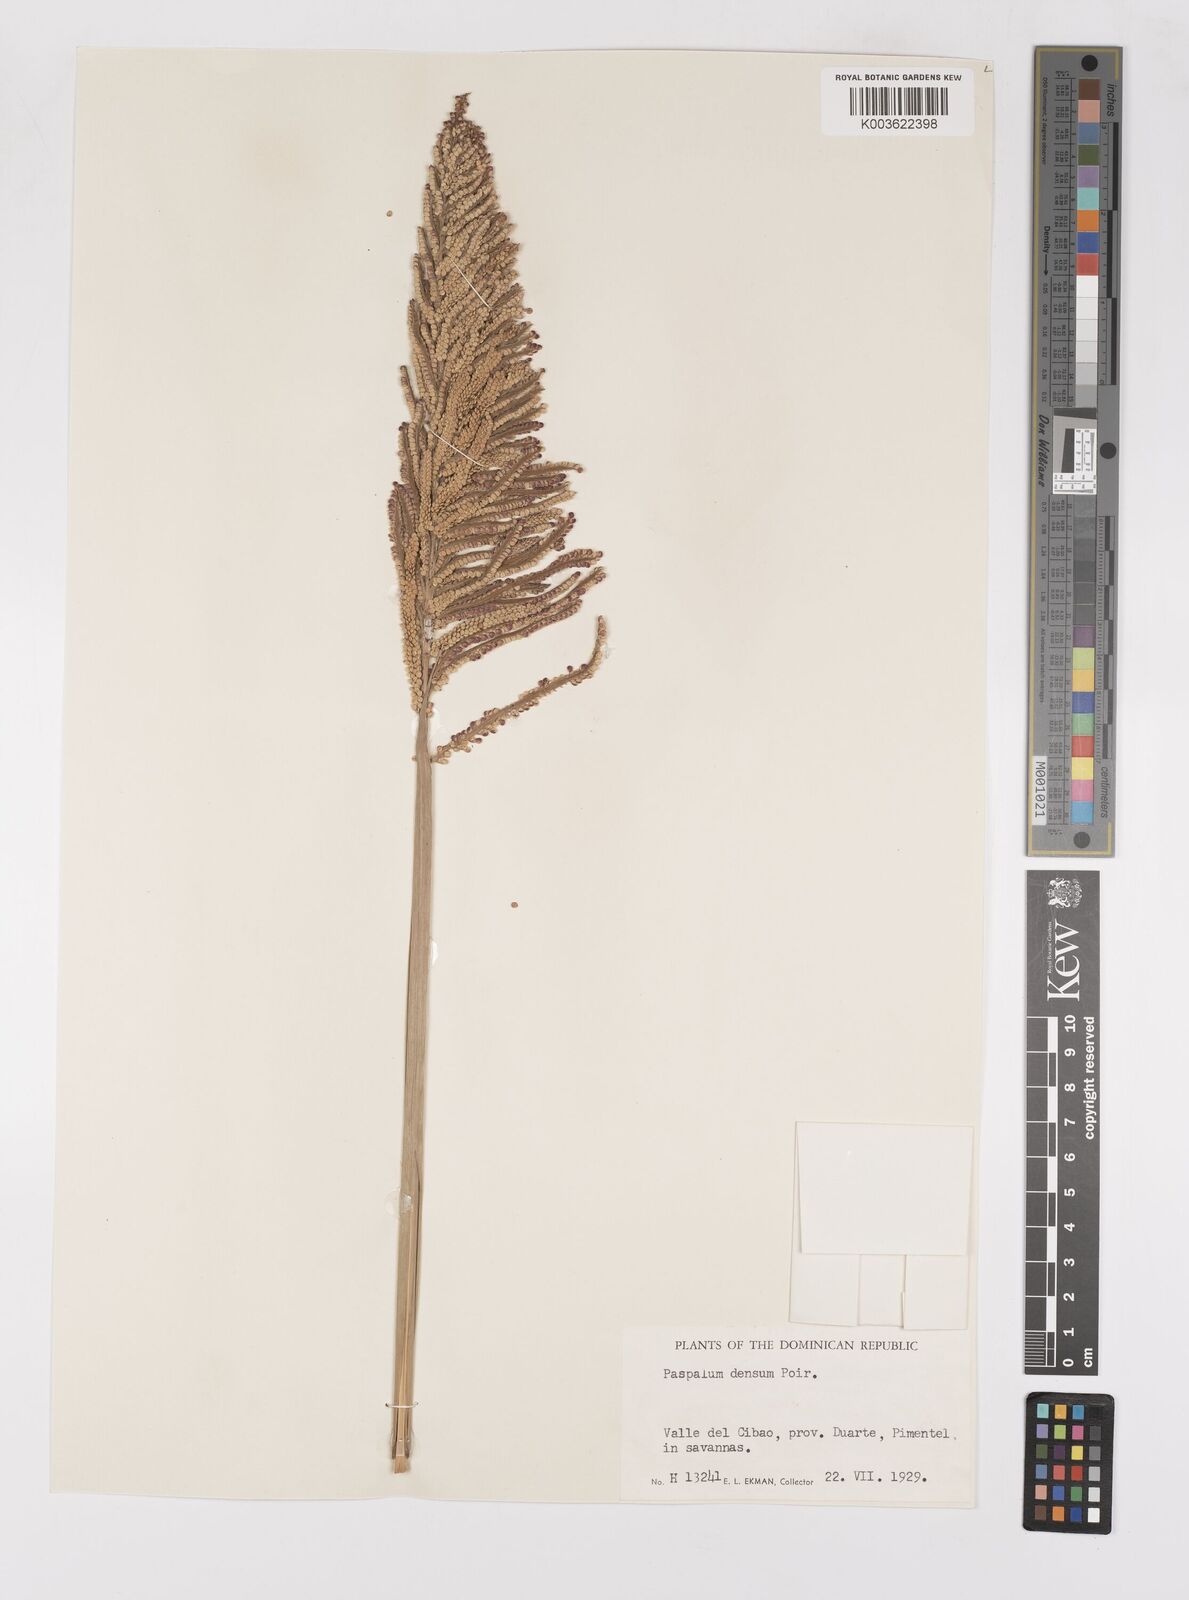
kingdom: Plantae
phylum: Tracheophyta
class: Liliopsida
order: Poales
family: Poaceae
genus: Paspalum
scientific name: Paspalum densum
